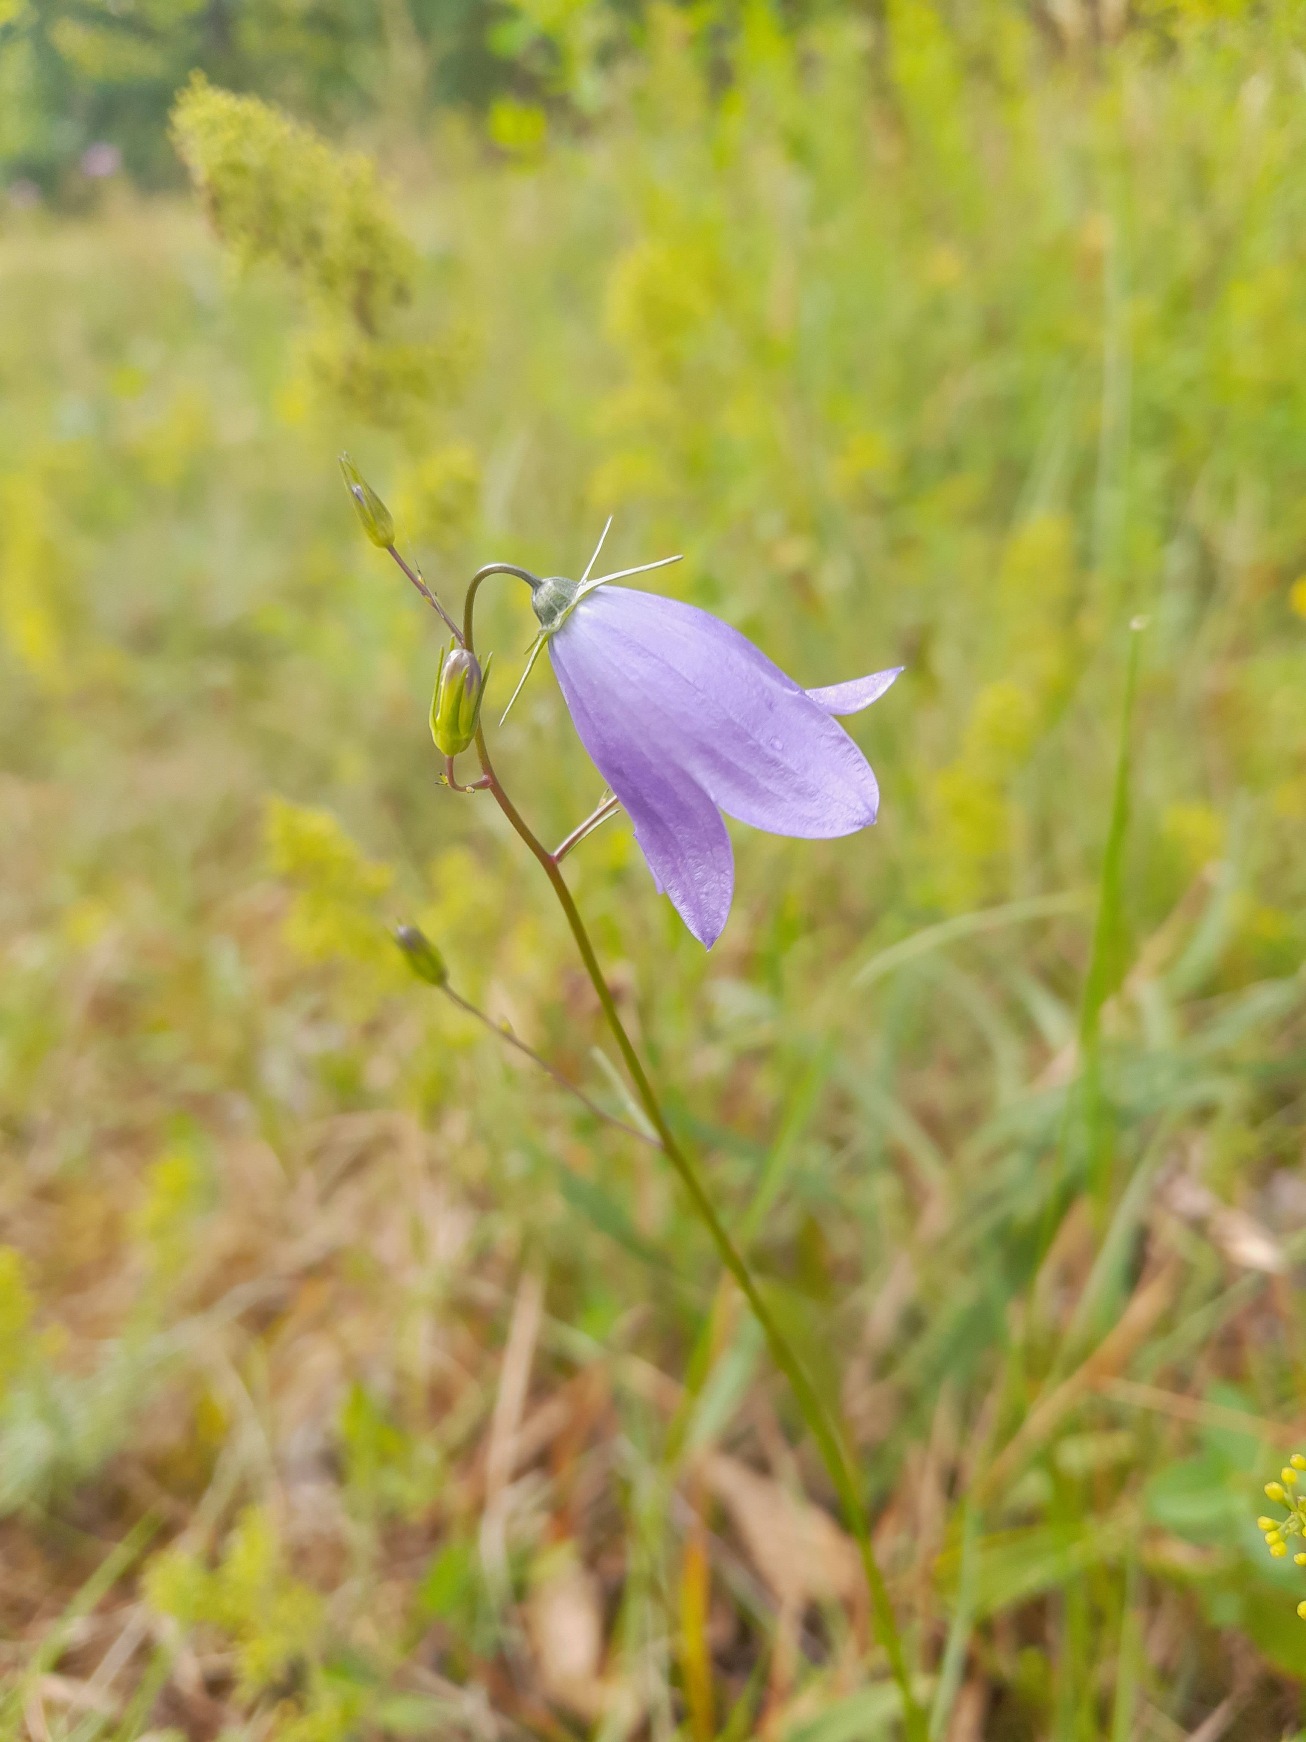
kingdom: Plantae
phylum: Tracheophyta
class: Magnoliopsida
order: Asterales
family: Campanulaceae
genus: Campanula
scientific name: Campanula rotundifolia
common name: Liden klokke
